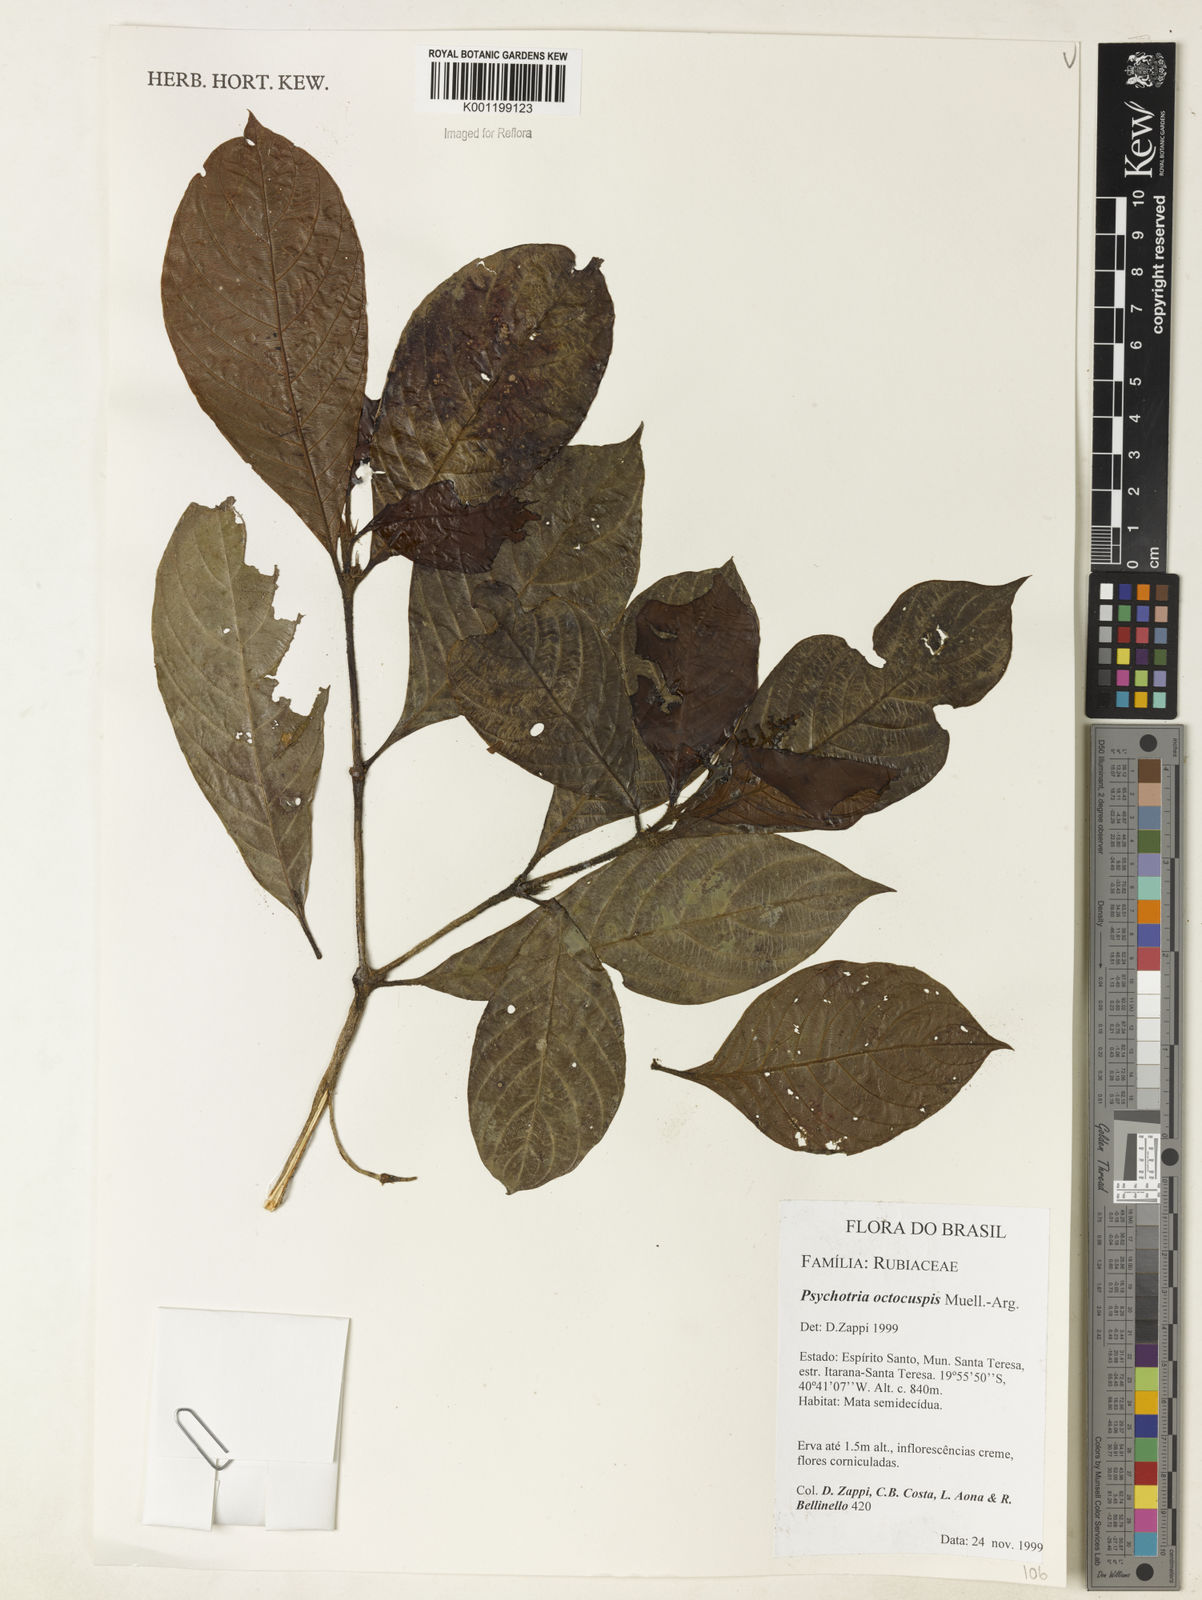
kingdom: Plantae
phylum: Tracheophyta
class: Magnoliopsida
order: Gentianales
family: Rubiaceae
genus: Psychotria
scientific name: Psychotria
